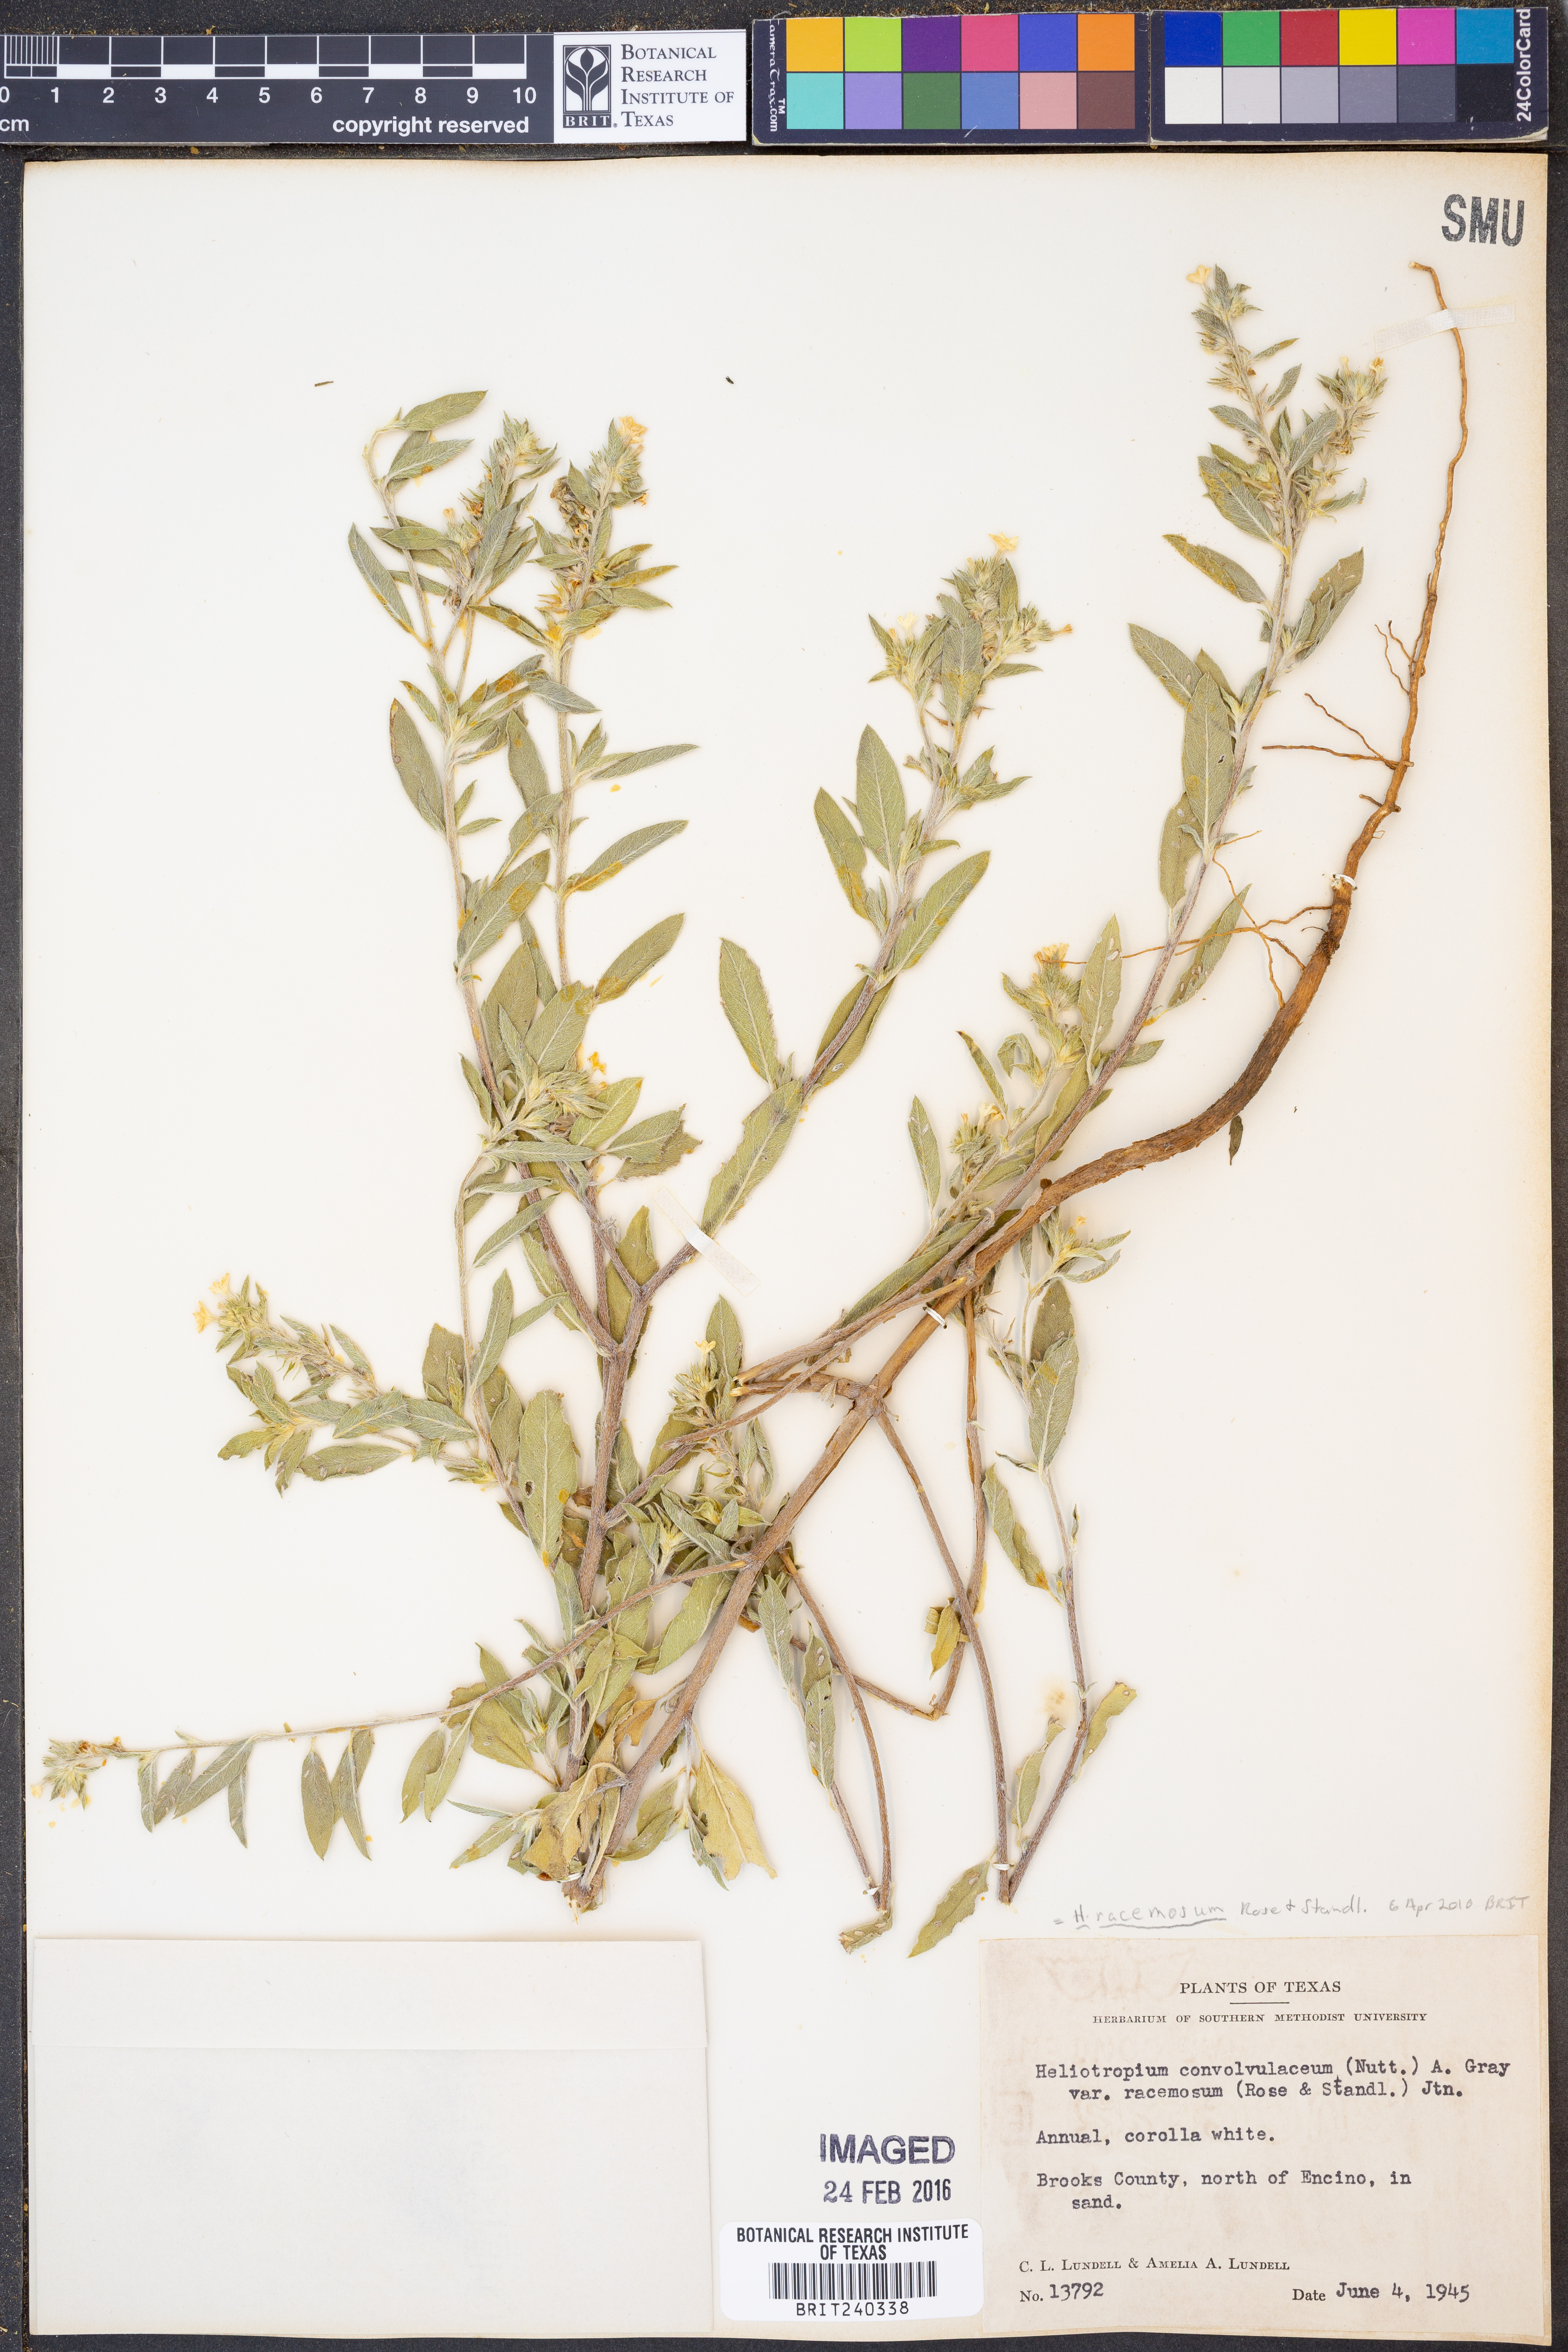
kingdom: Plantae
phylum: Tracheophyta
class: Magnoliopsida
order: Boraginales
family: Heliotropiaceae
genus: Heliotropium
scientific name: Heliotropium racemosum
